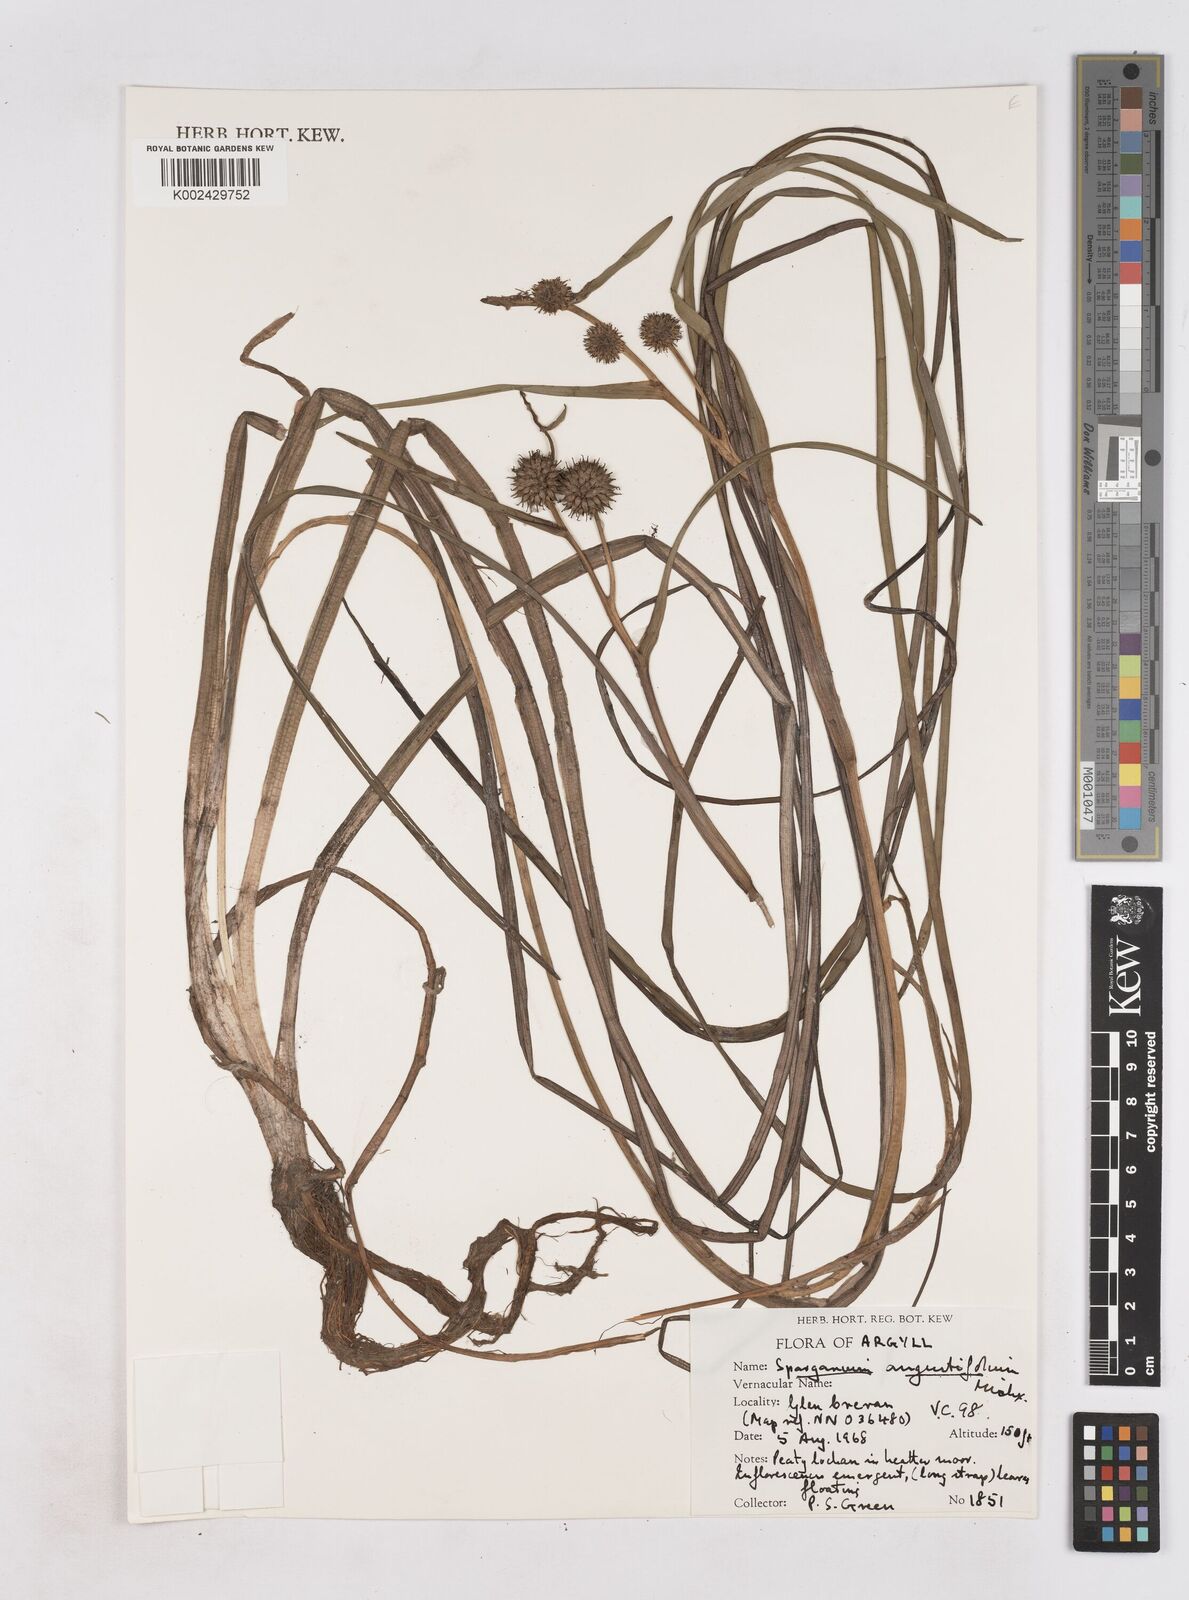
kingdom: Plantae
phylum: Tracheophyta
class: Liliopsida
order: Poales
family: Typhaceae
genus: Sparganium
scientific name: Sparganium angustifolium
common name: Floating bur-reed
